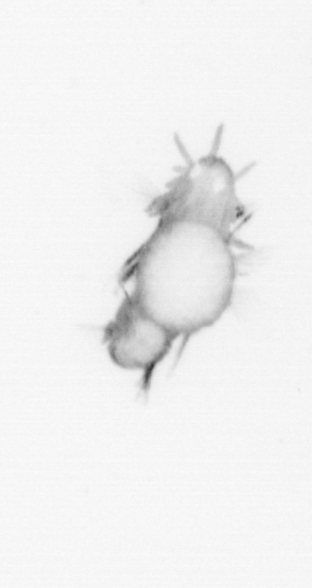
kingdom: Animalia
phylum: Annelida
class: Polychaeta
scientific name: Polychaeta
